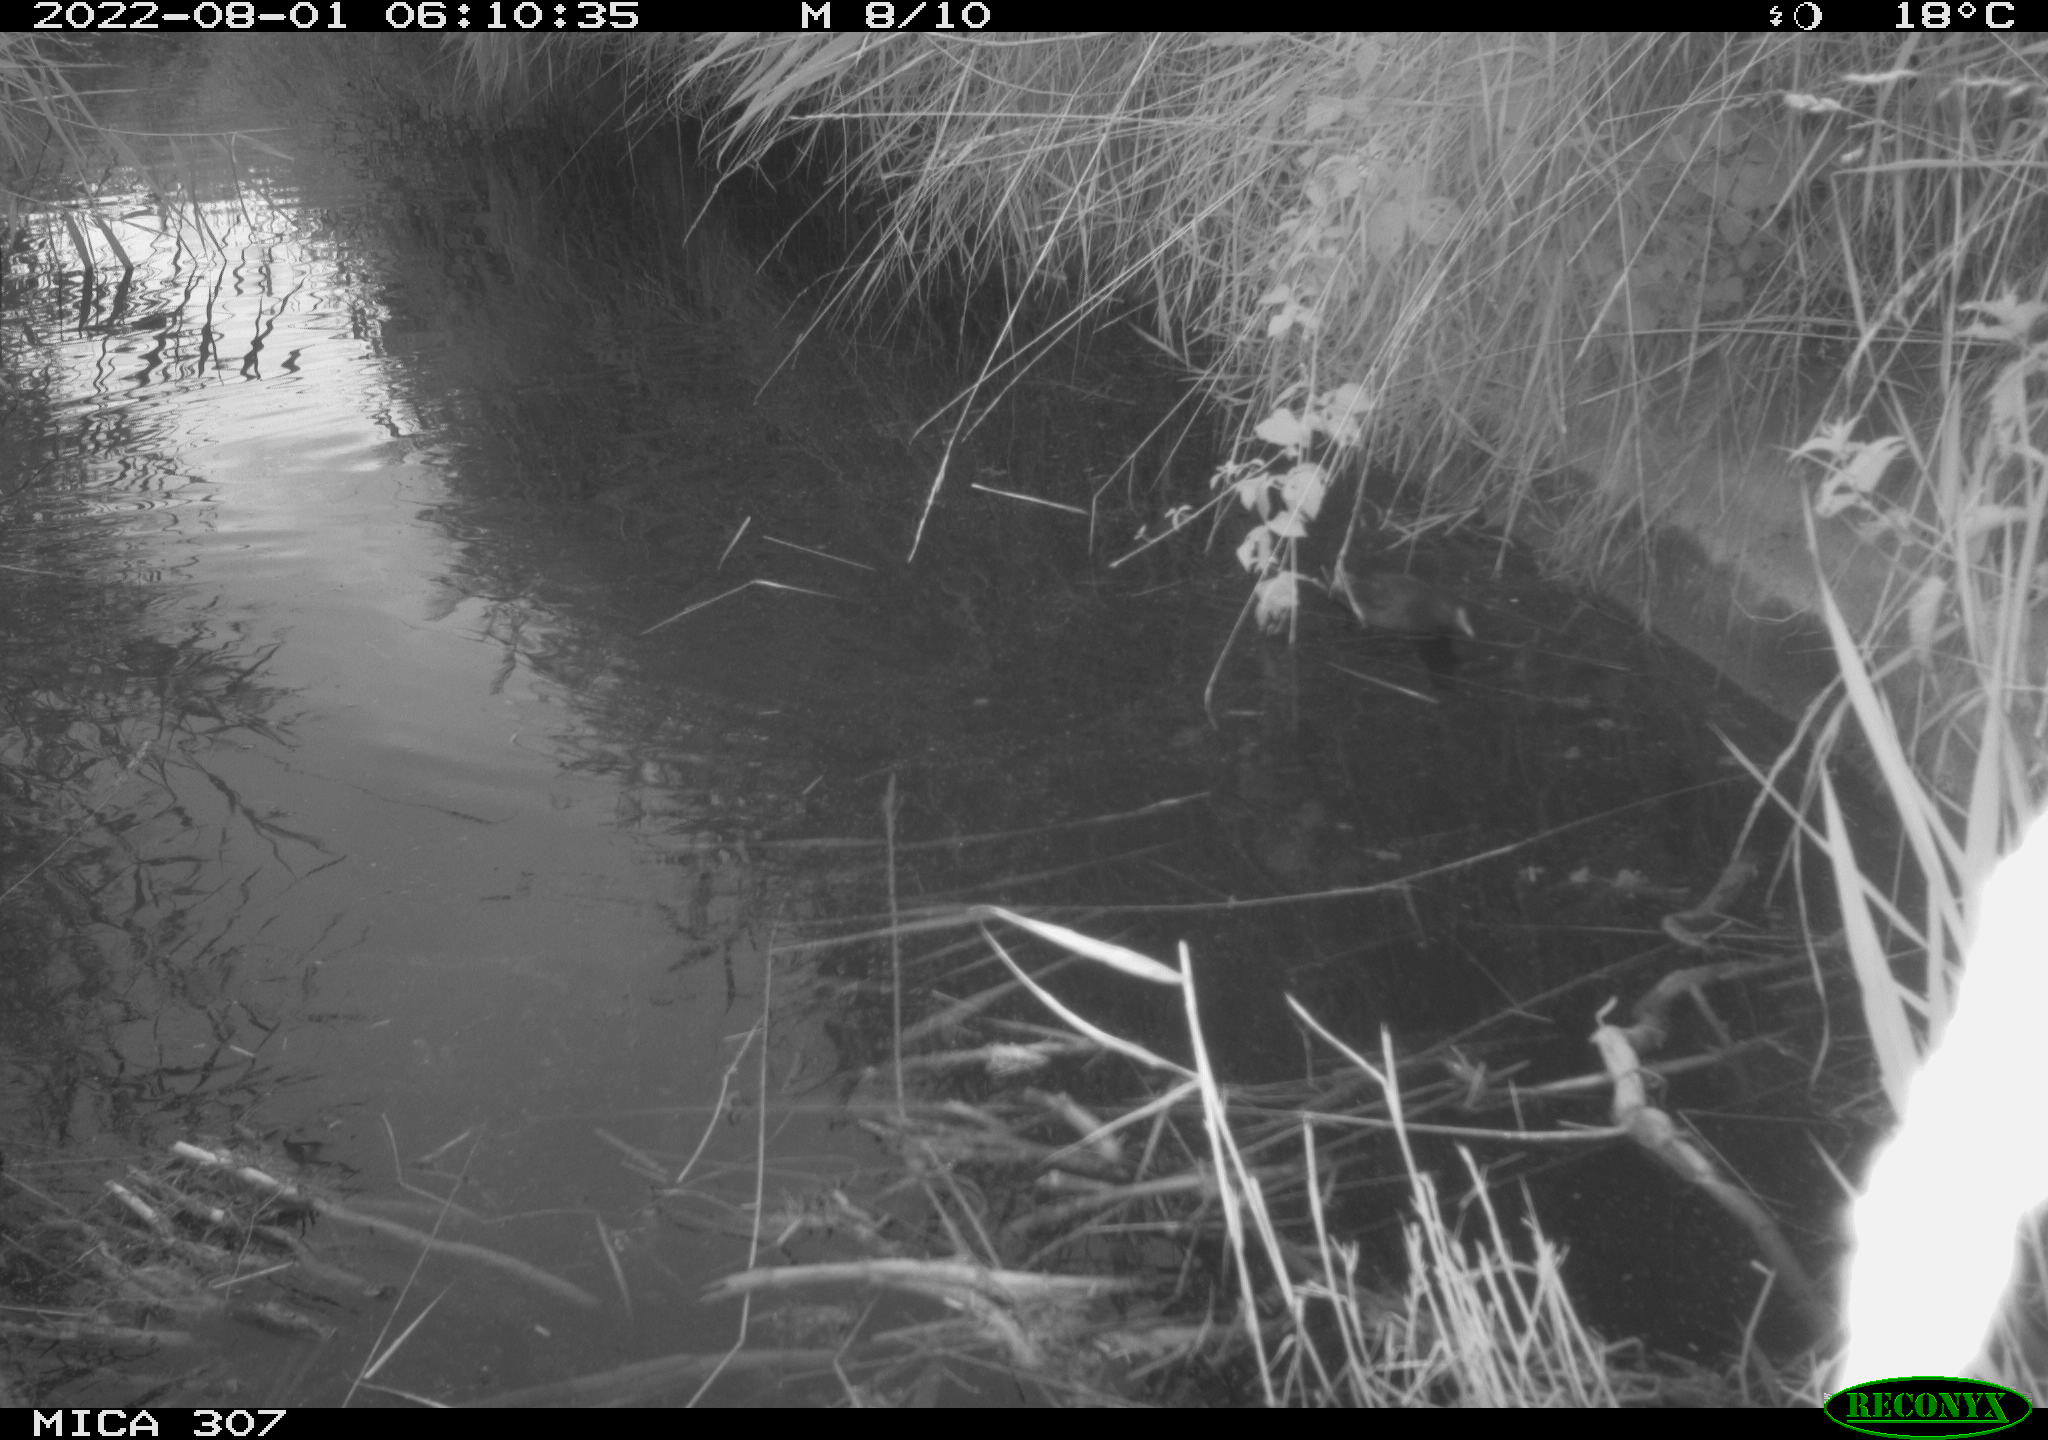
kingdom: Animalia
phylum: Chordata
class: Aves
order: Gruiformes
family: Rallidae
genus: Gallinula
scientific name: Gallinula chloropus
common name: Common moorhen
